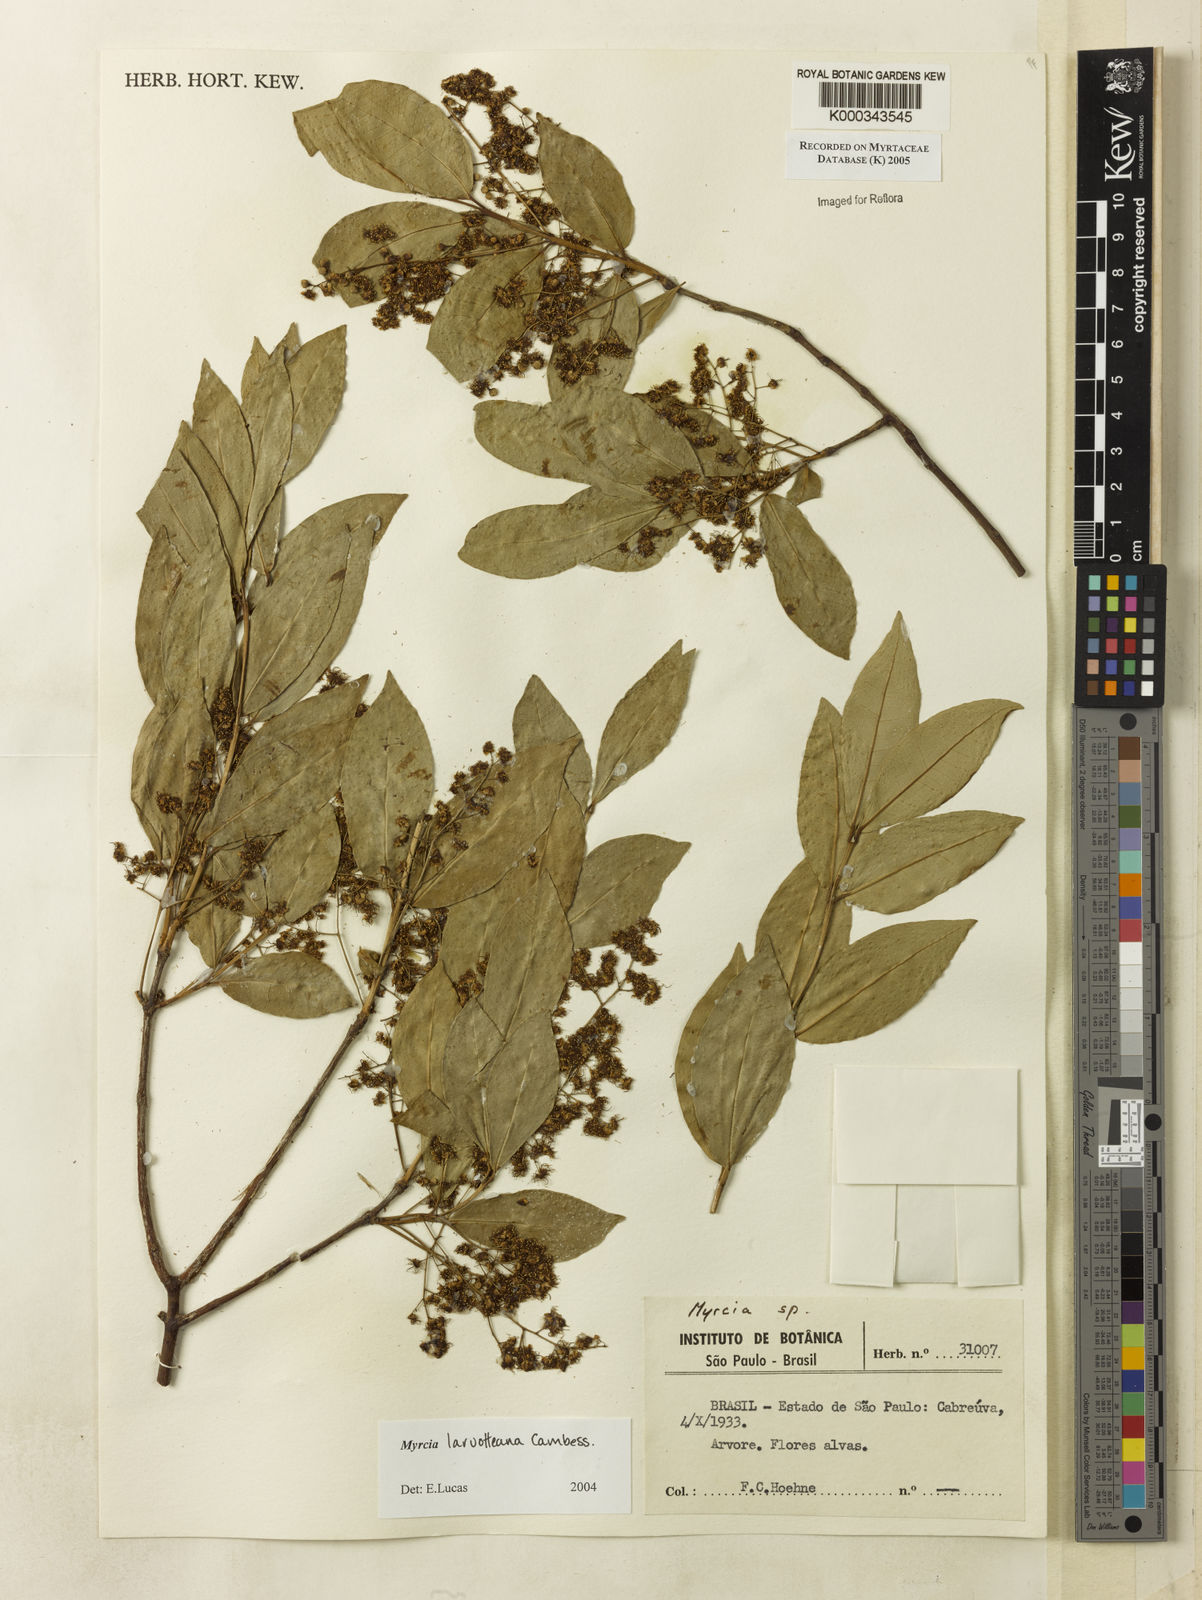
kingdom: Plantae
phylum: Tracheophyta
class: Magnoliopsida
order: Myrtales
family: Myrtaceae
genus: Myrcia
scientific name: Myrcia laruotteana
